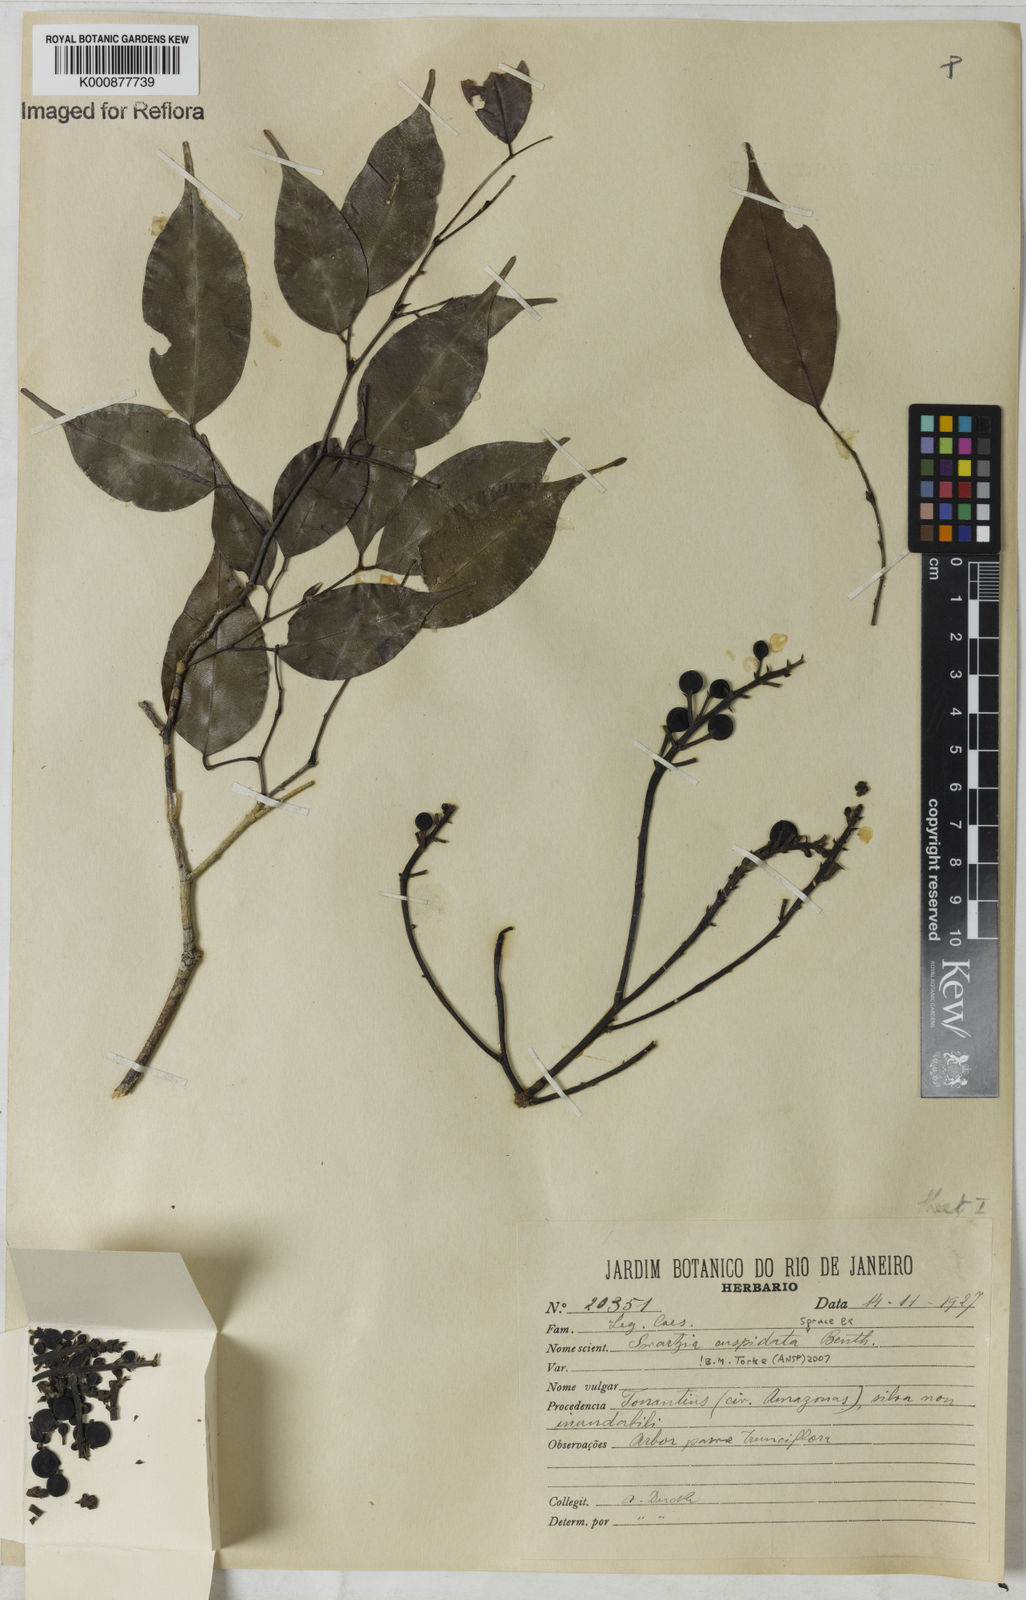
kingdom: Plantae
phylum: Tracheophyta
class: Magnoliopsida
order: Fabales
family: Fabaceae
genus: Swartzia
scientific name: Swartzia cuspidata
